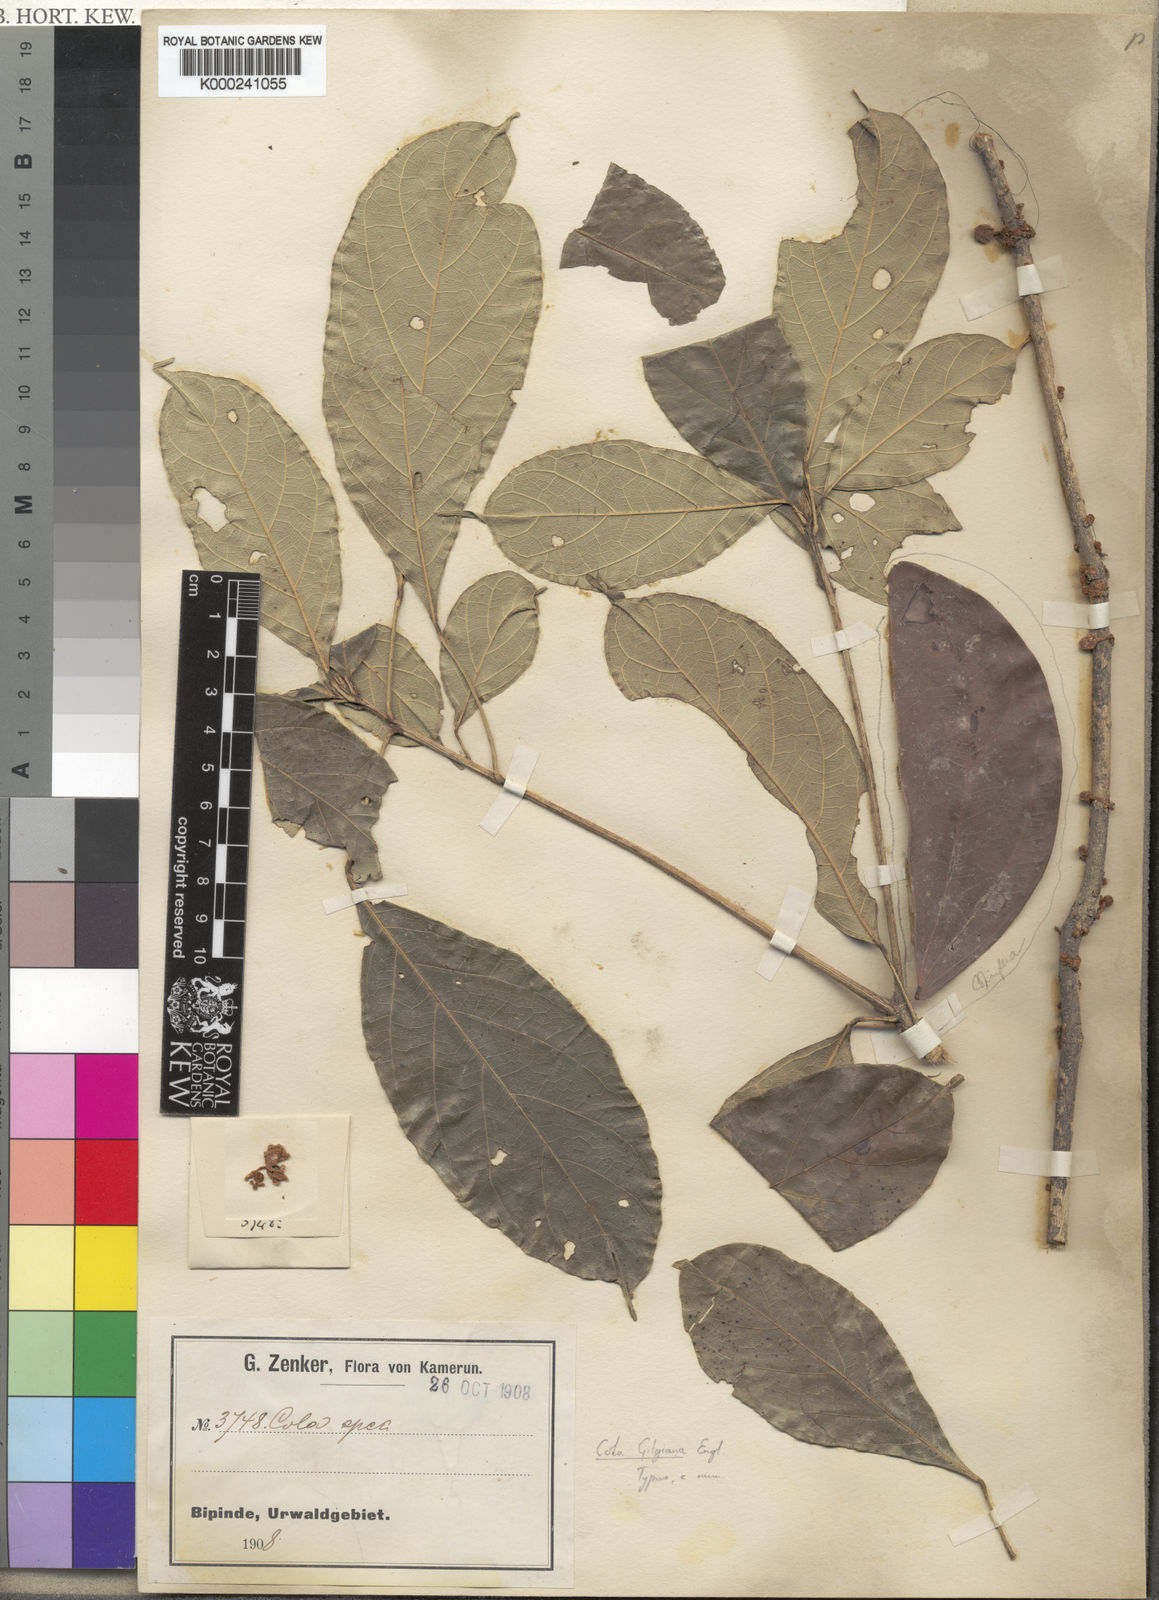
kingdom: Plantae
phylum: Tracheophyta
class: Magnoliopsida
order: Malvales
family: Malvaceae
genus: Cola
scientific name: Cola flavovelutina
